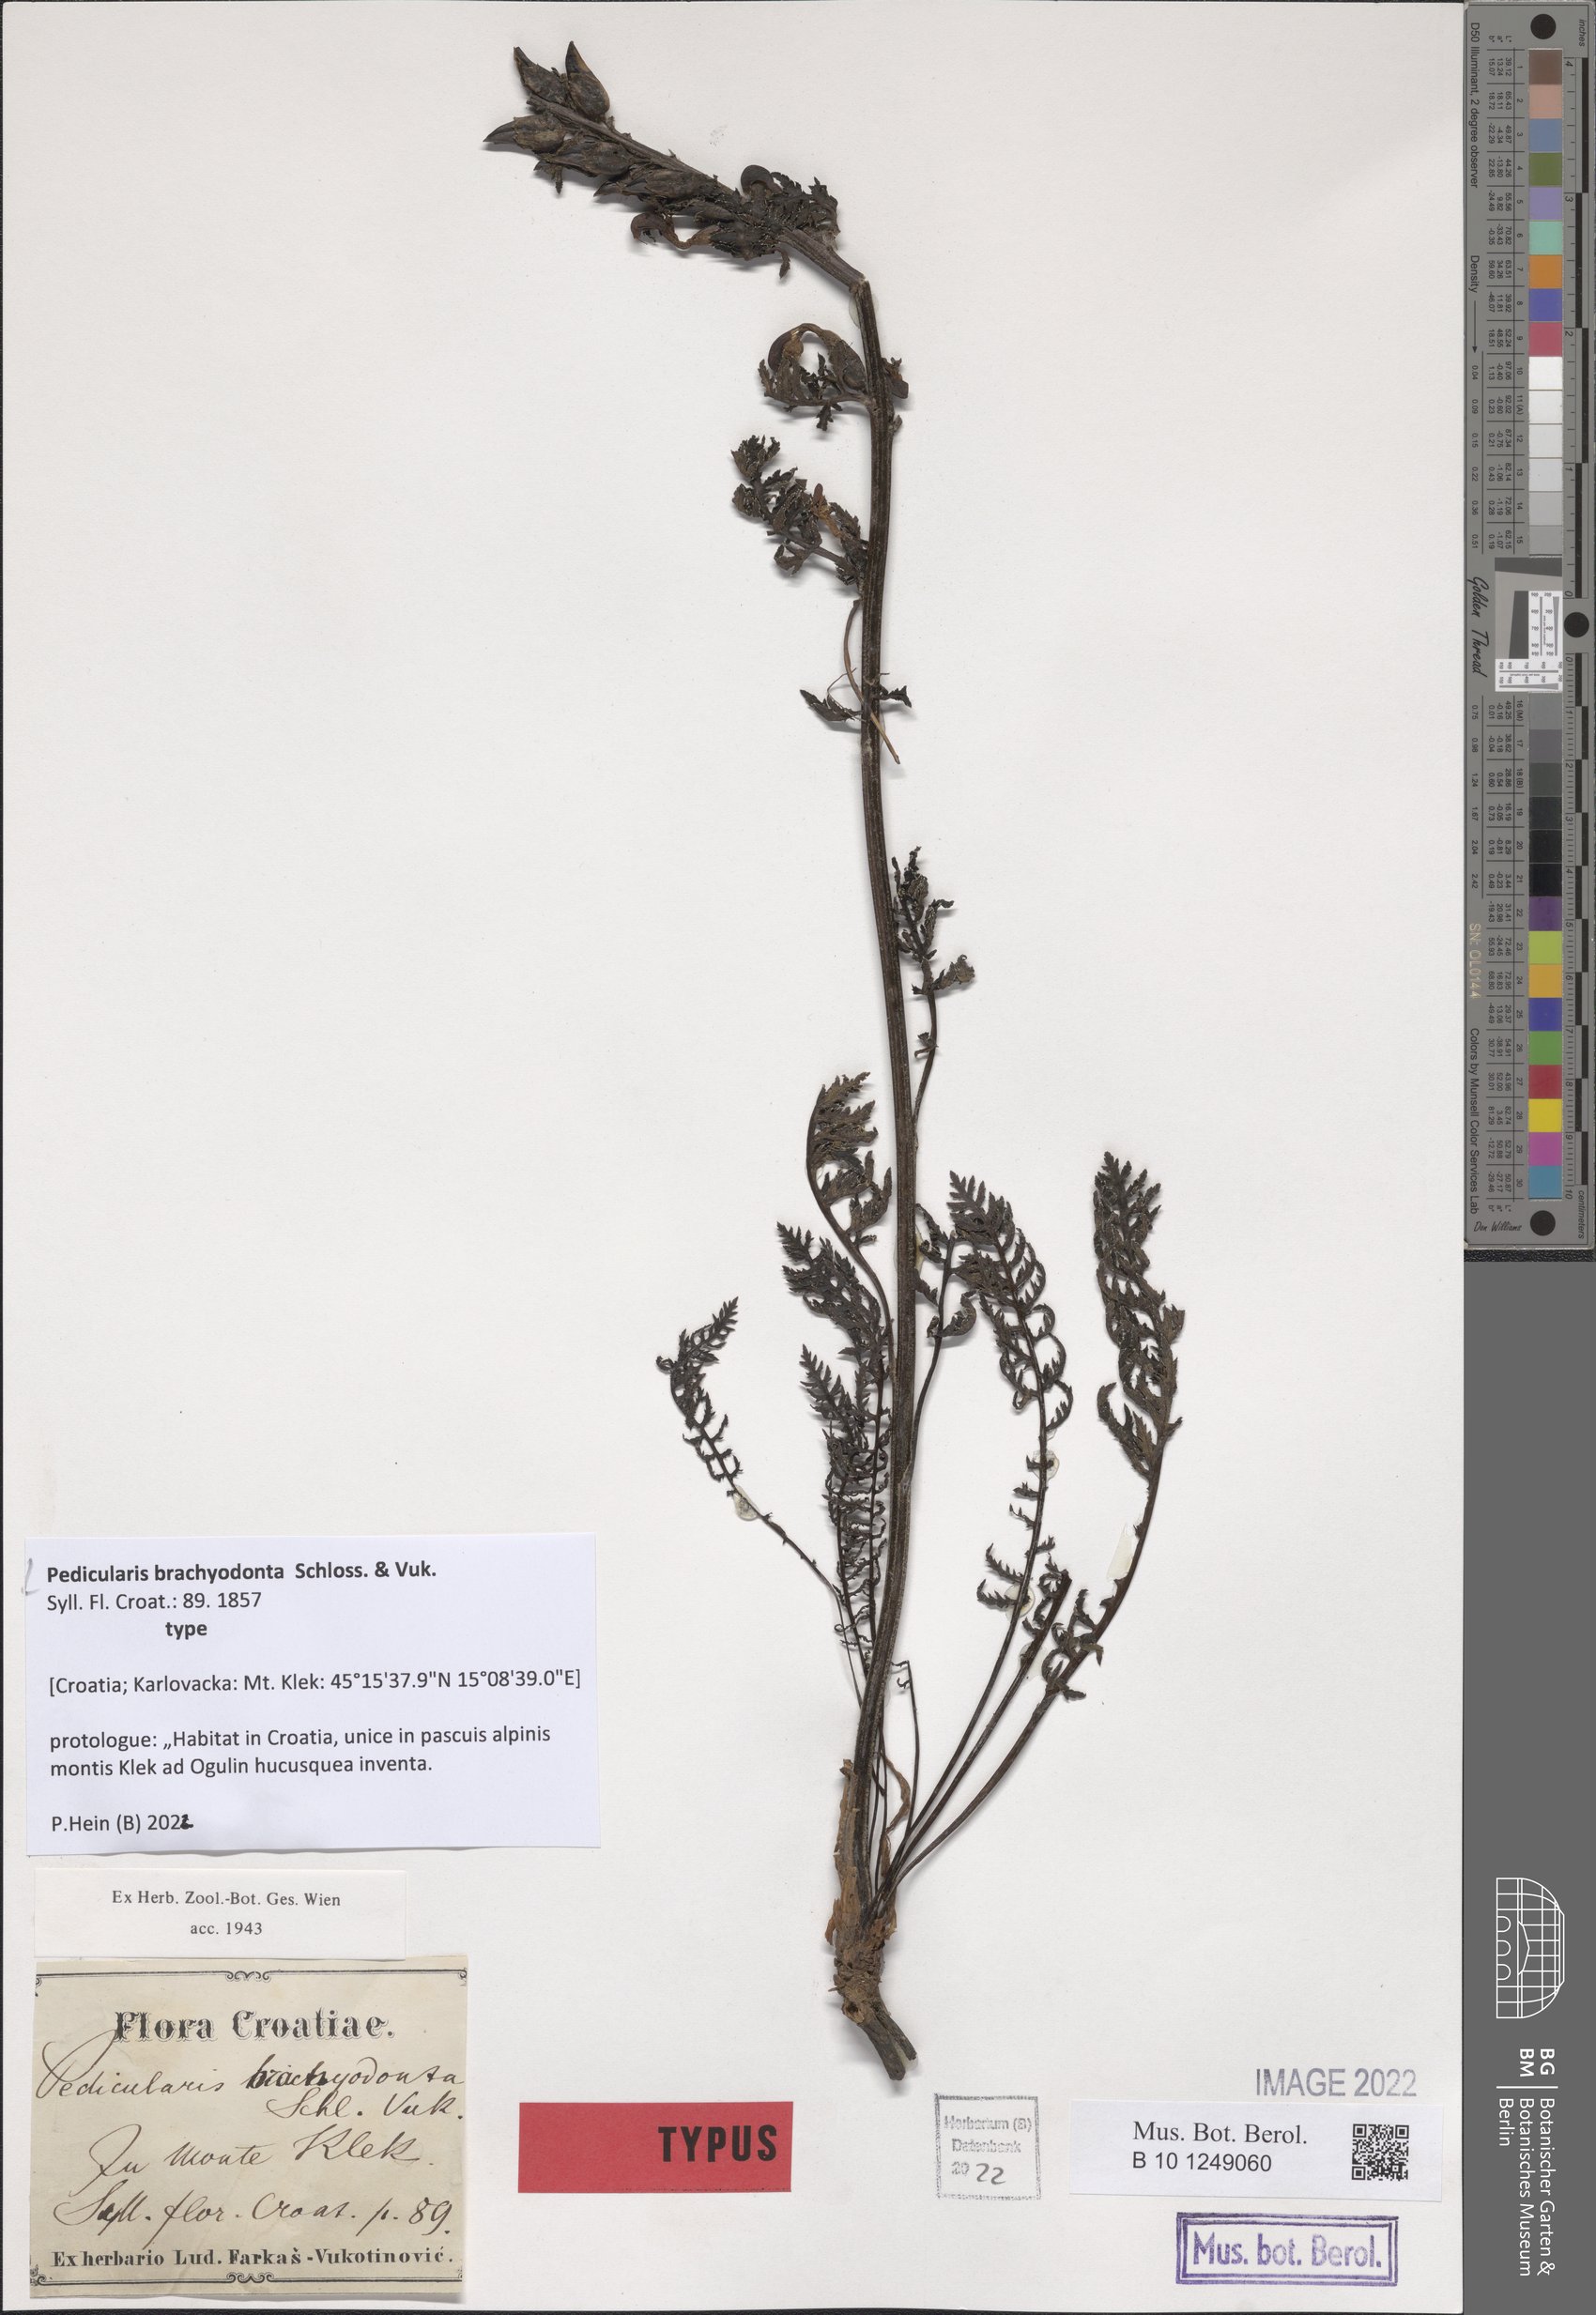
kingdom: Plantae
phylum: Tracheophyta
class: Magnoliopsida
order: Lamiales
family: Orobanchaceae
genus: Pedicularis
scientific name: Pedicularis brachyodonta
